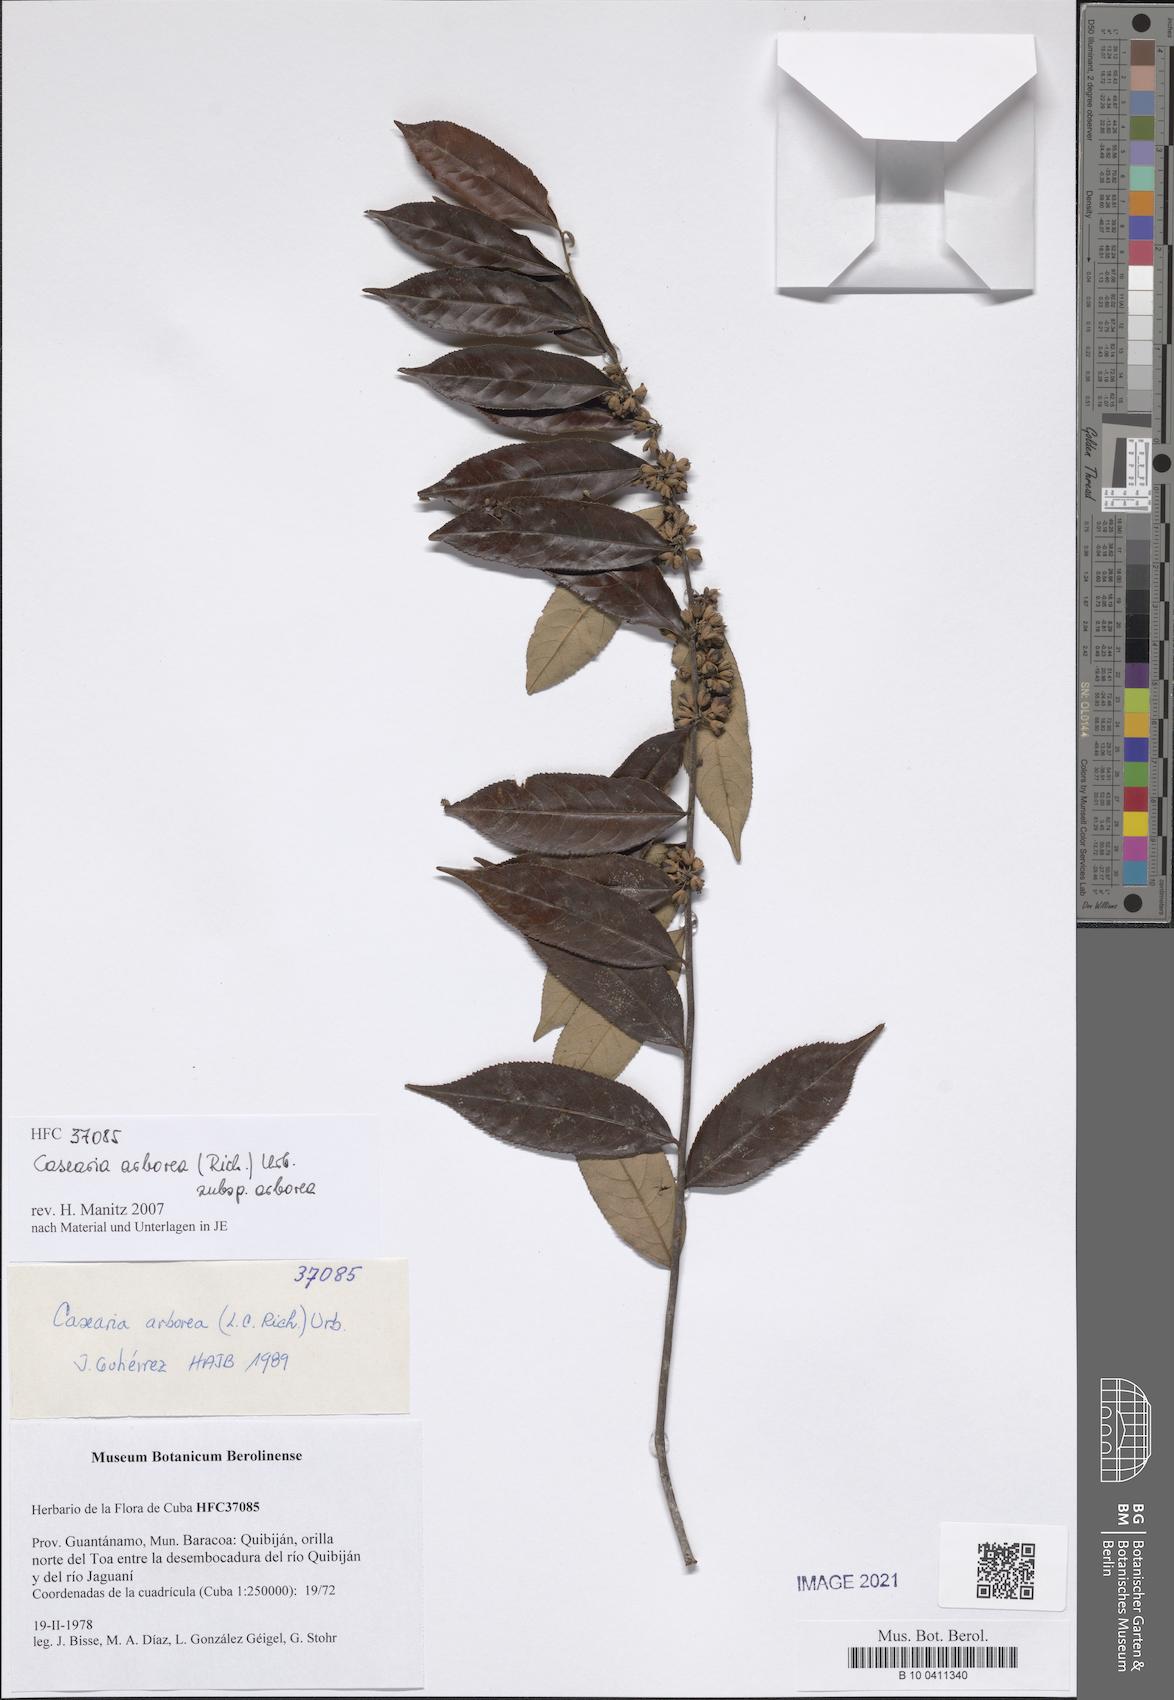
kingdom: Plantae
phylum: Tracheophyta
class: Magnoliopsida
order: Malpighiales
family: Salicaceae
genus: Casearia
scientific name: Casearia arborea
